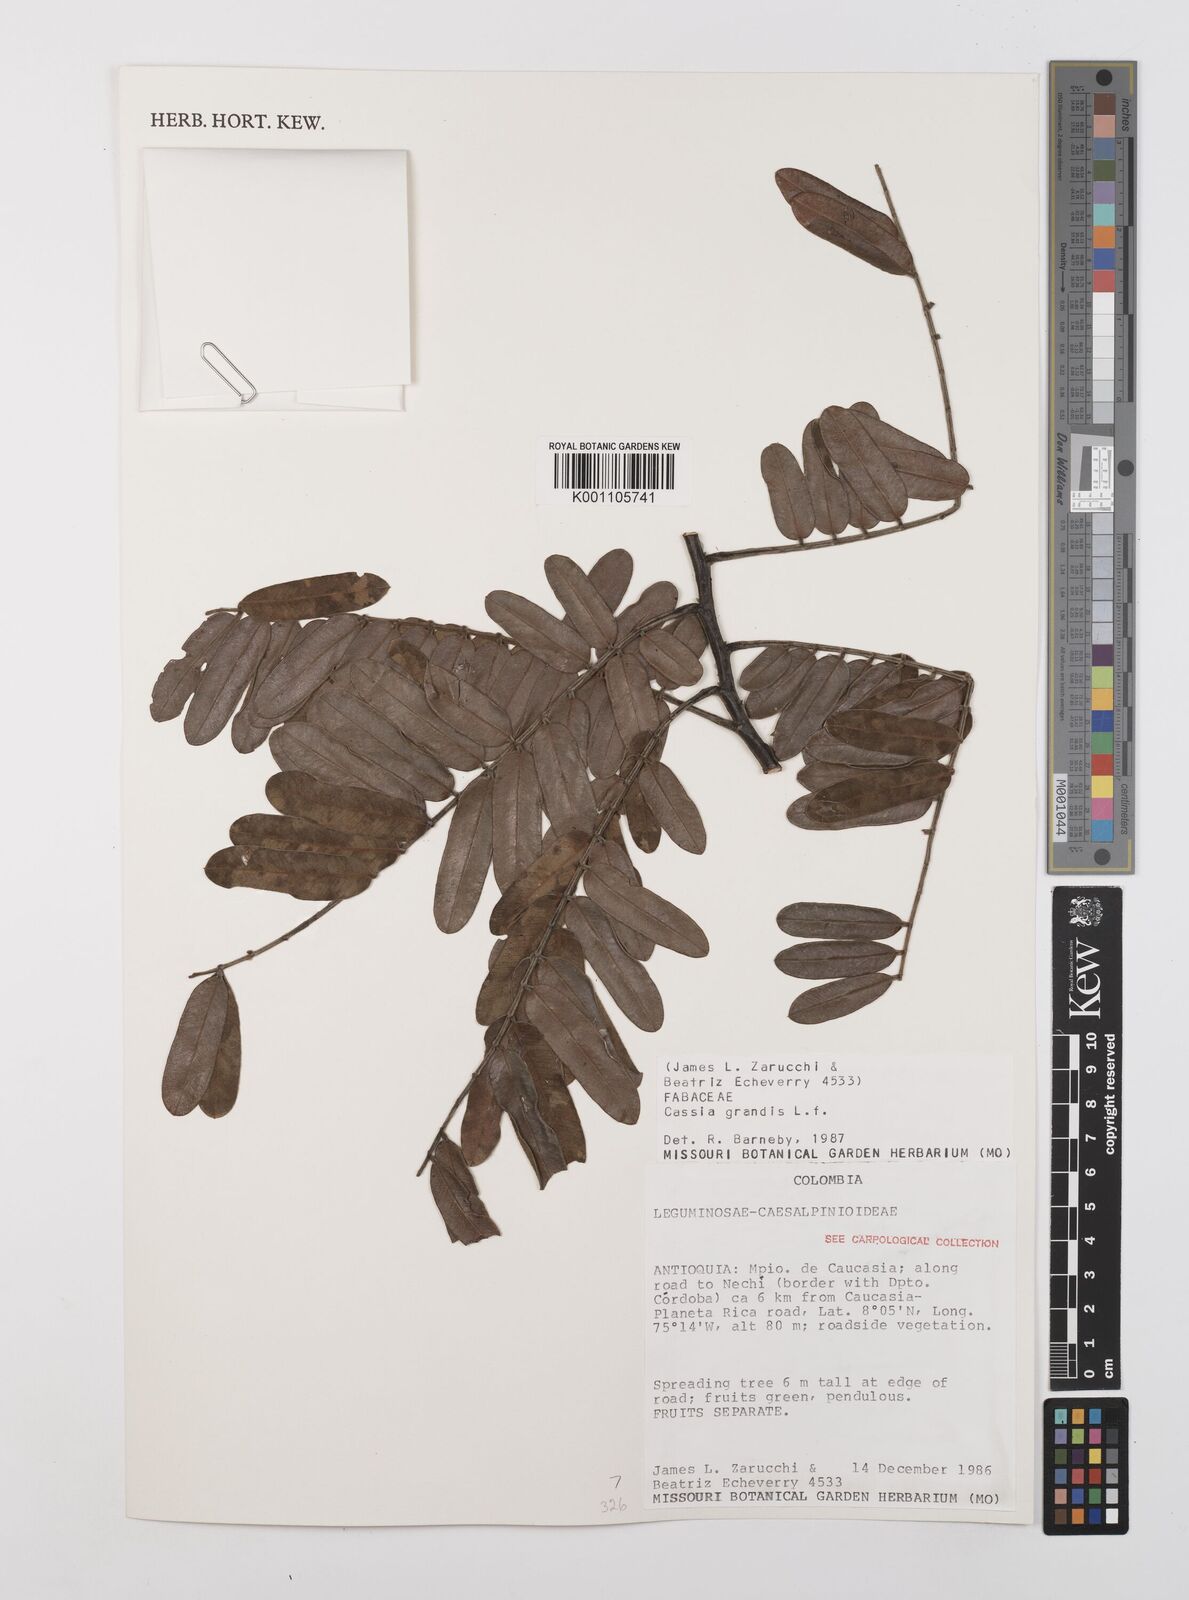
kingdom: Plantae
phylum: Tracheophyta
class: Magnoliopsida
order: Fabales
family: Fabaceae
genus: Cassia
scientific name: Cassia grandis
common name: Appleblossom cassia
